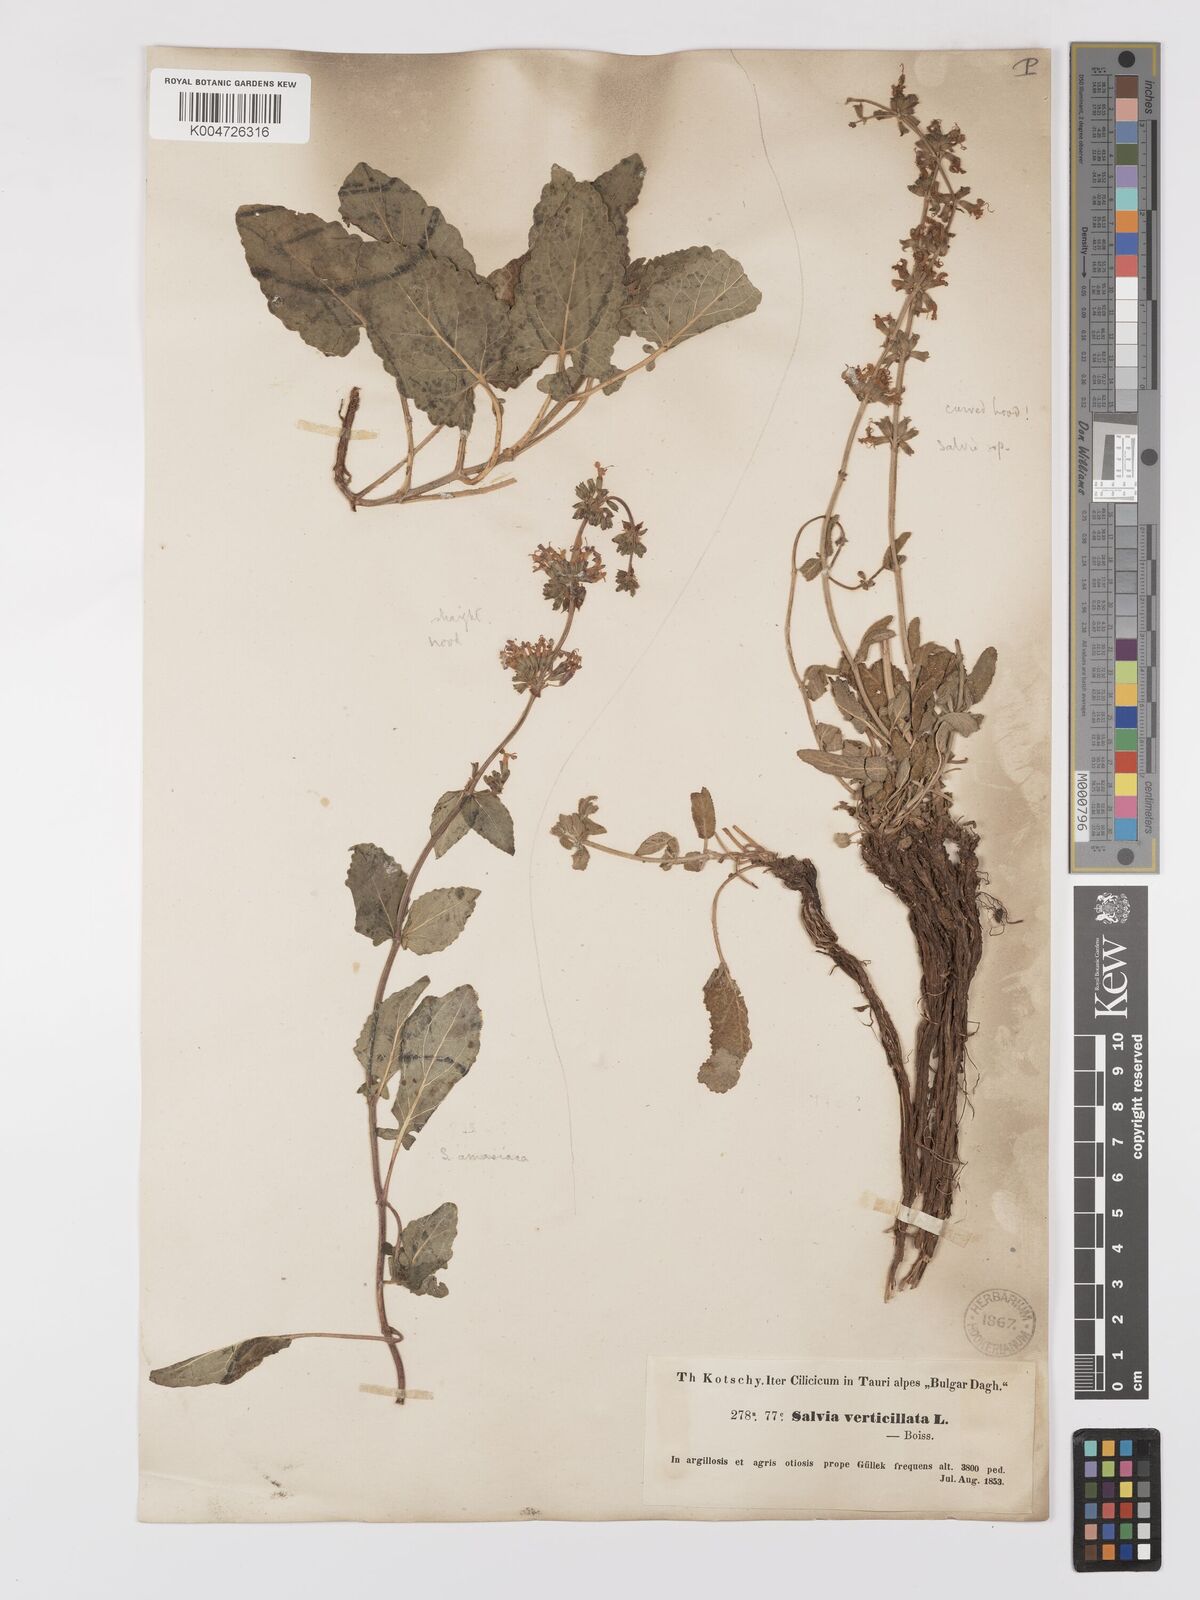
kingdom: Plantae
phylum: Tracheophyta
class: Magnoliopsida
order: Lamiales
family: Lamiaceae
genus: Salvia
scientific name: Salvia verticillata
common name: Whorled clary
